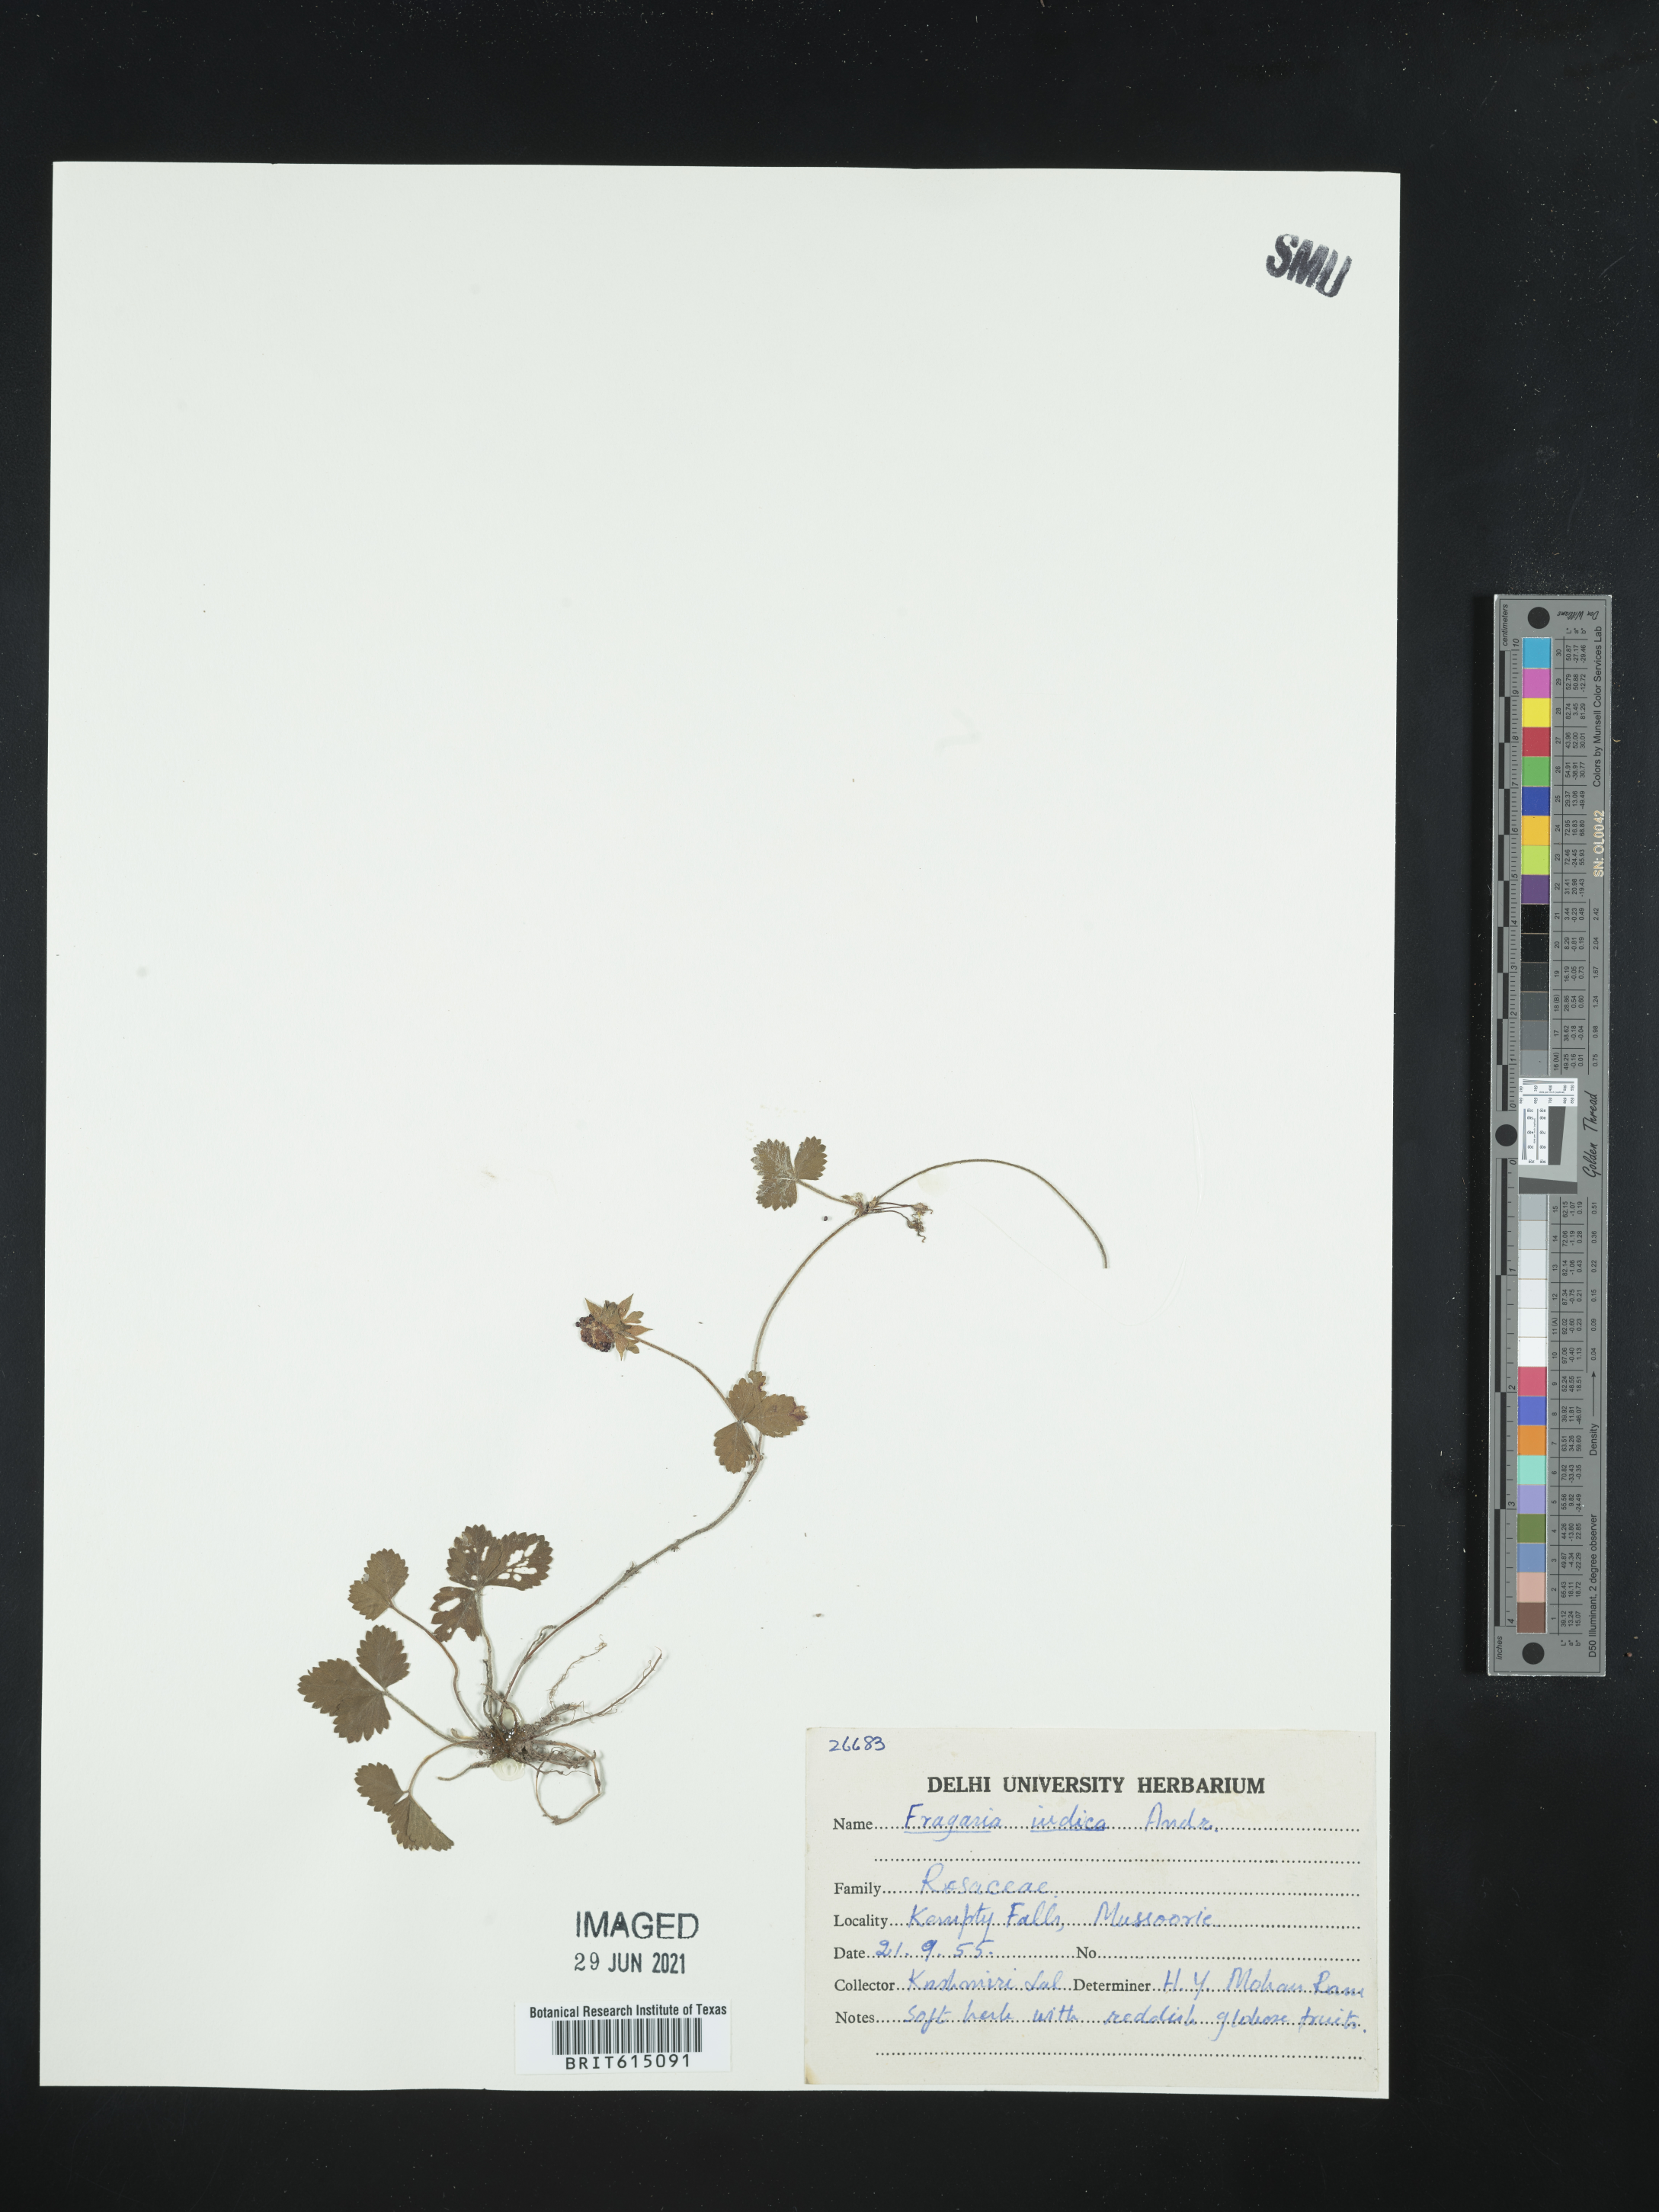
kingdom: Plantae
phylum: Tracheophyta
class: Magnoliopsida
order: Rosales
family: Rosaceae
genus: Potentilla
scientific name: Potentilla indica
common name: Yellow-flowered strawberry
